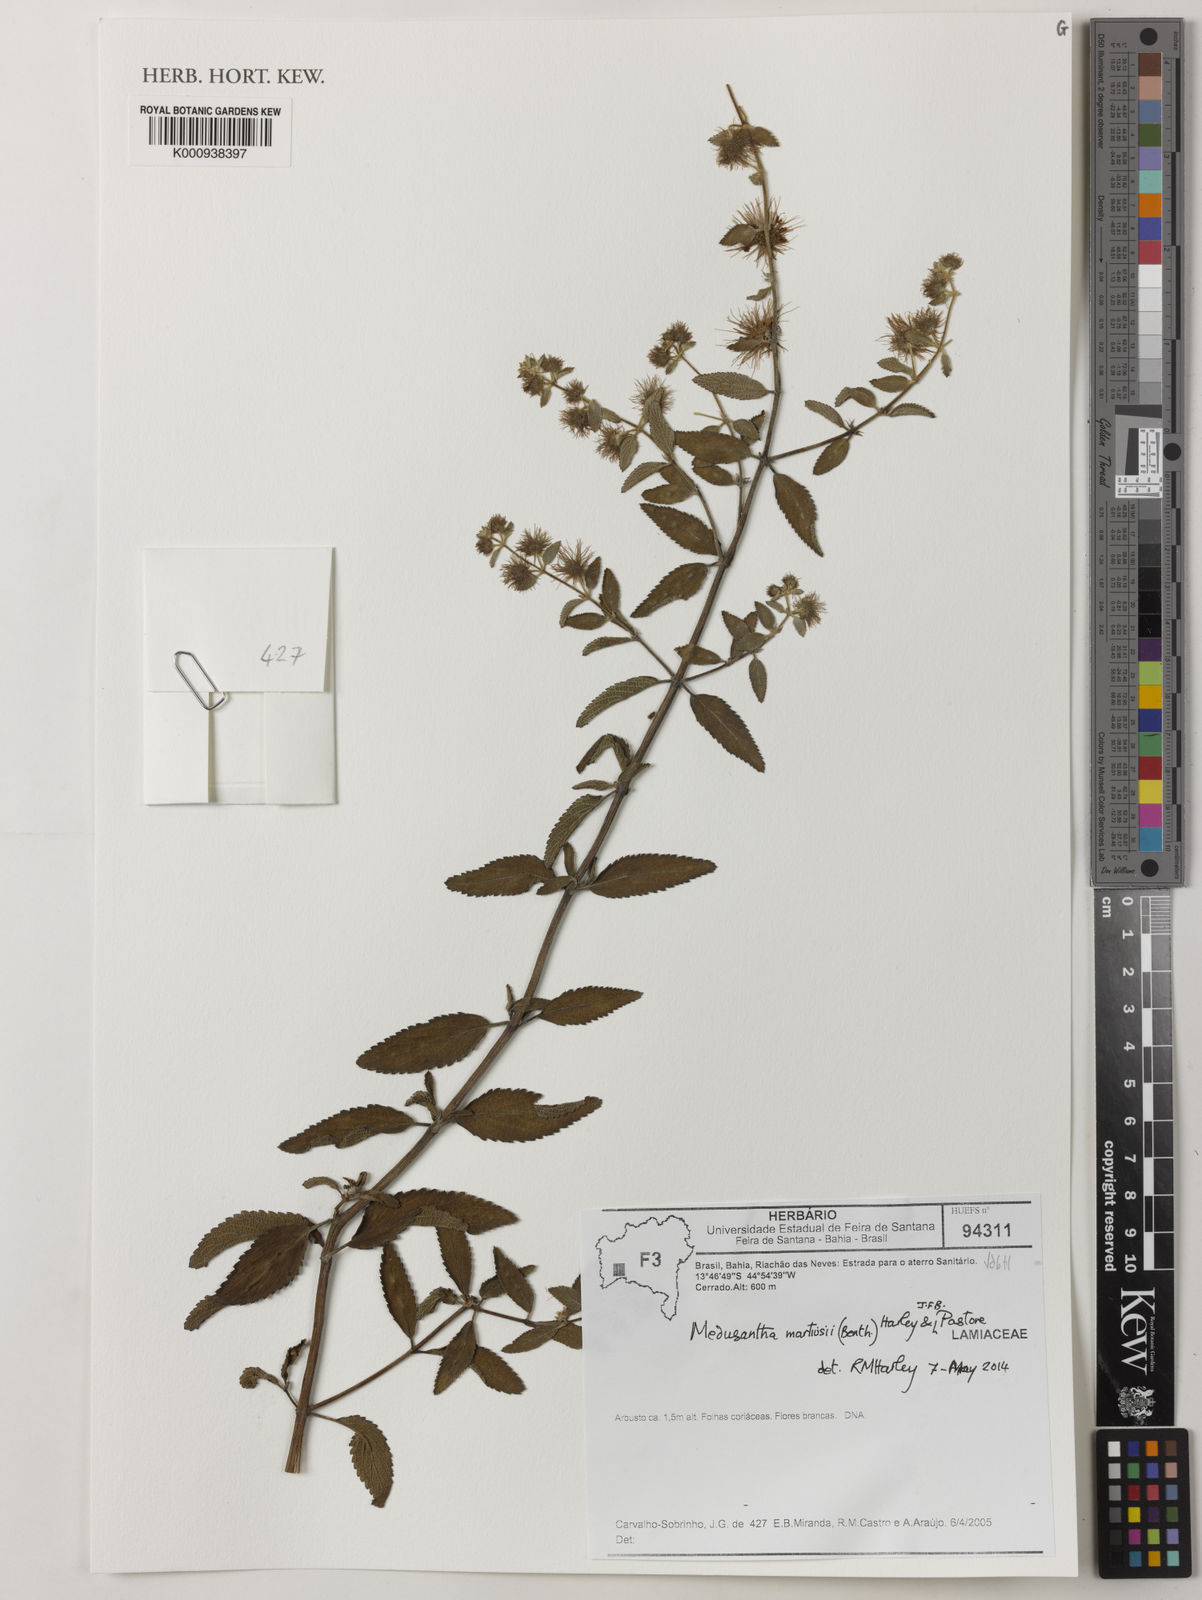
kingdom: Plantae
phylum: Tracheophyta
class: Magnoliopsida
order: Lamiales
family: Lamiaceae
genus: Medusantha
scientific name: Medusantha martiusii
